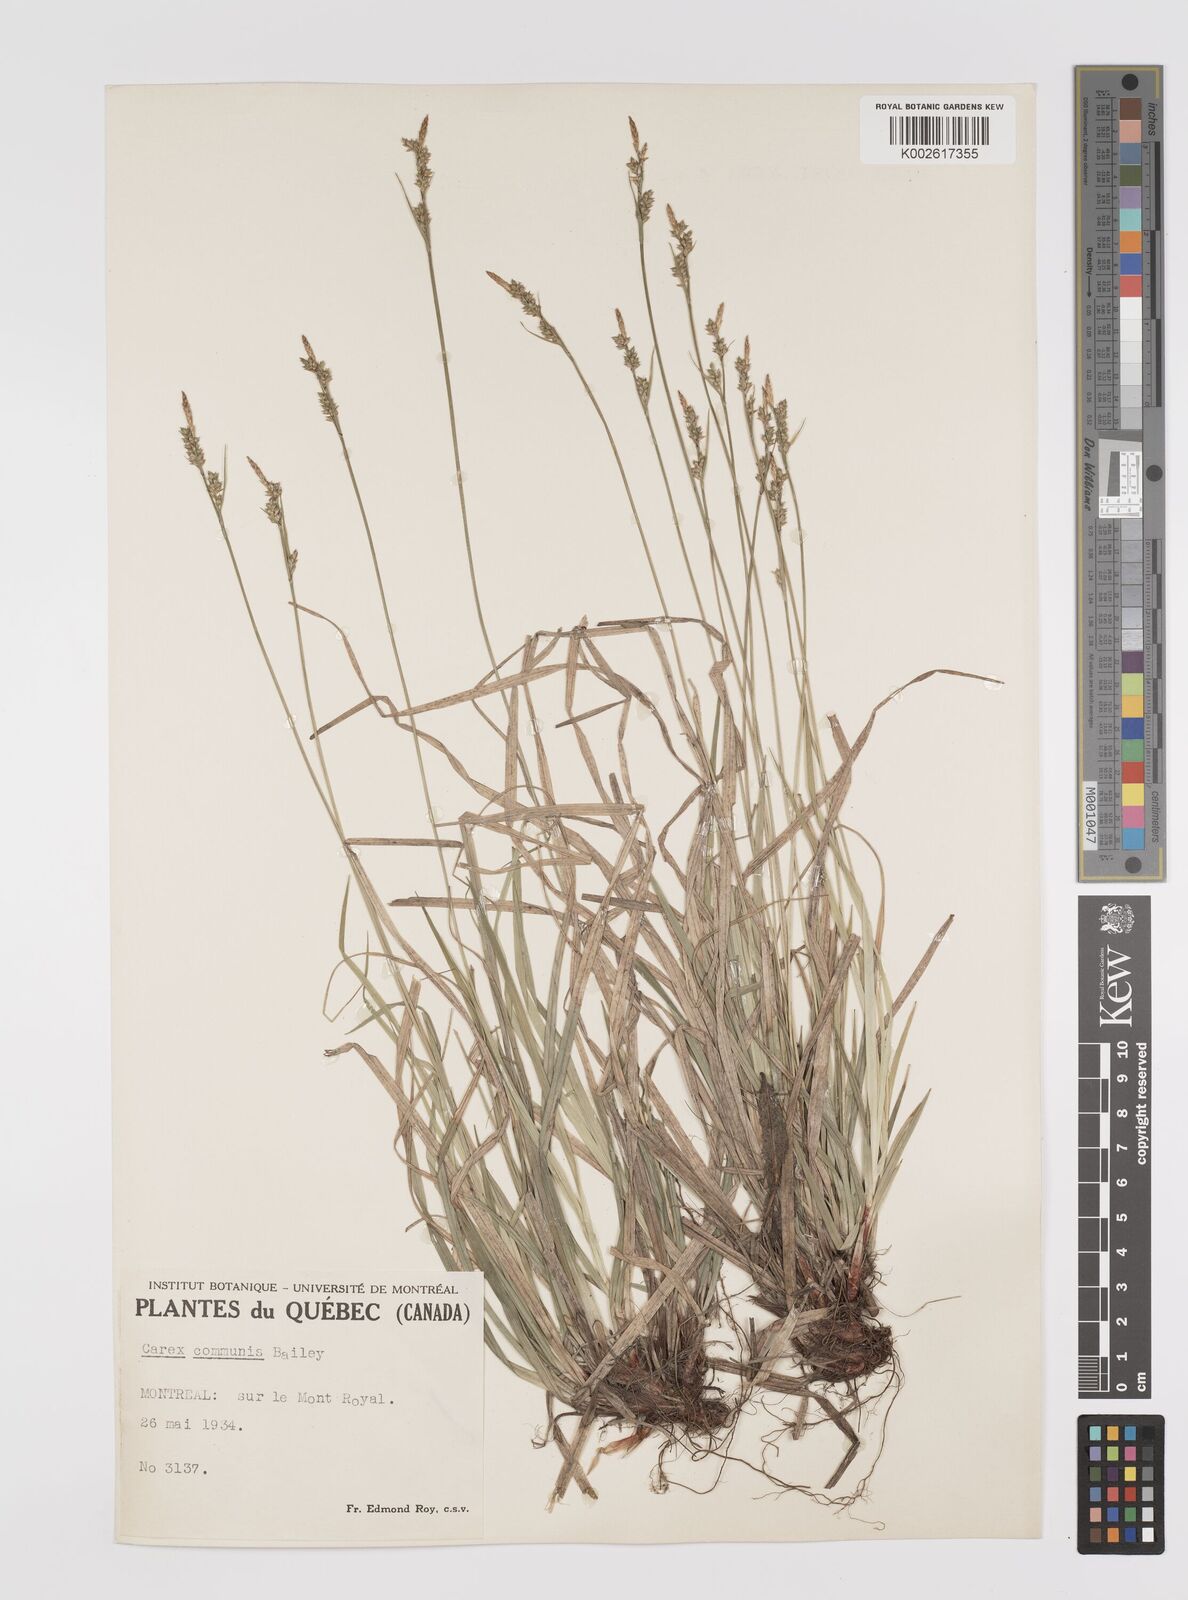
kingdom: Plantae
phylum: Tracheophyta
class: Liliopsida
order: Poales
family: Cyperaceae
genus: Carex
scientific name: Carex communis
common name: Colonial oak sedge
